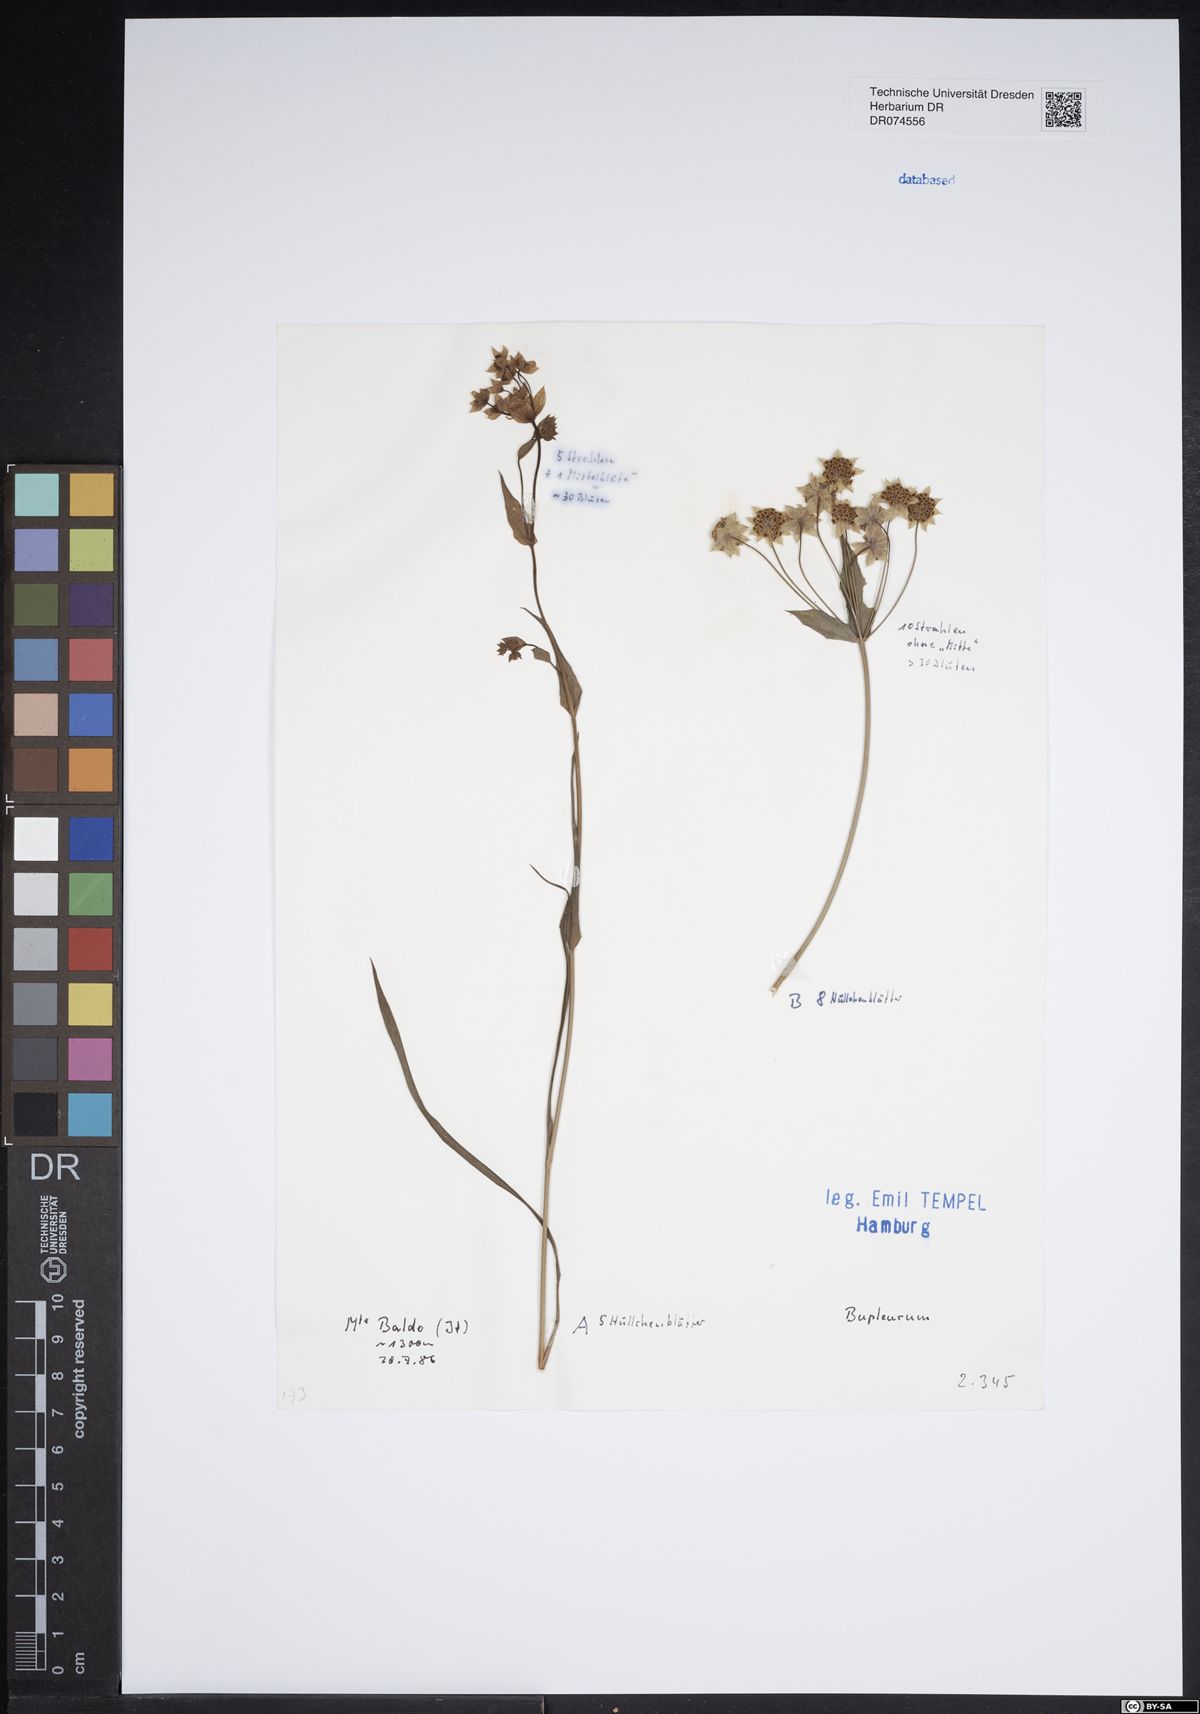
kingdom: Plantae
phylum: Tracheophyta
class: Magnoliopsida
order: Apiales
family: Apiaceae
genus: Bupleurum
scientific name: Bupleurum
